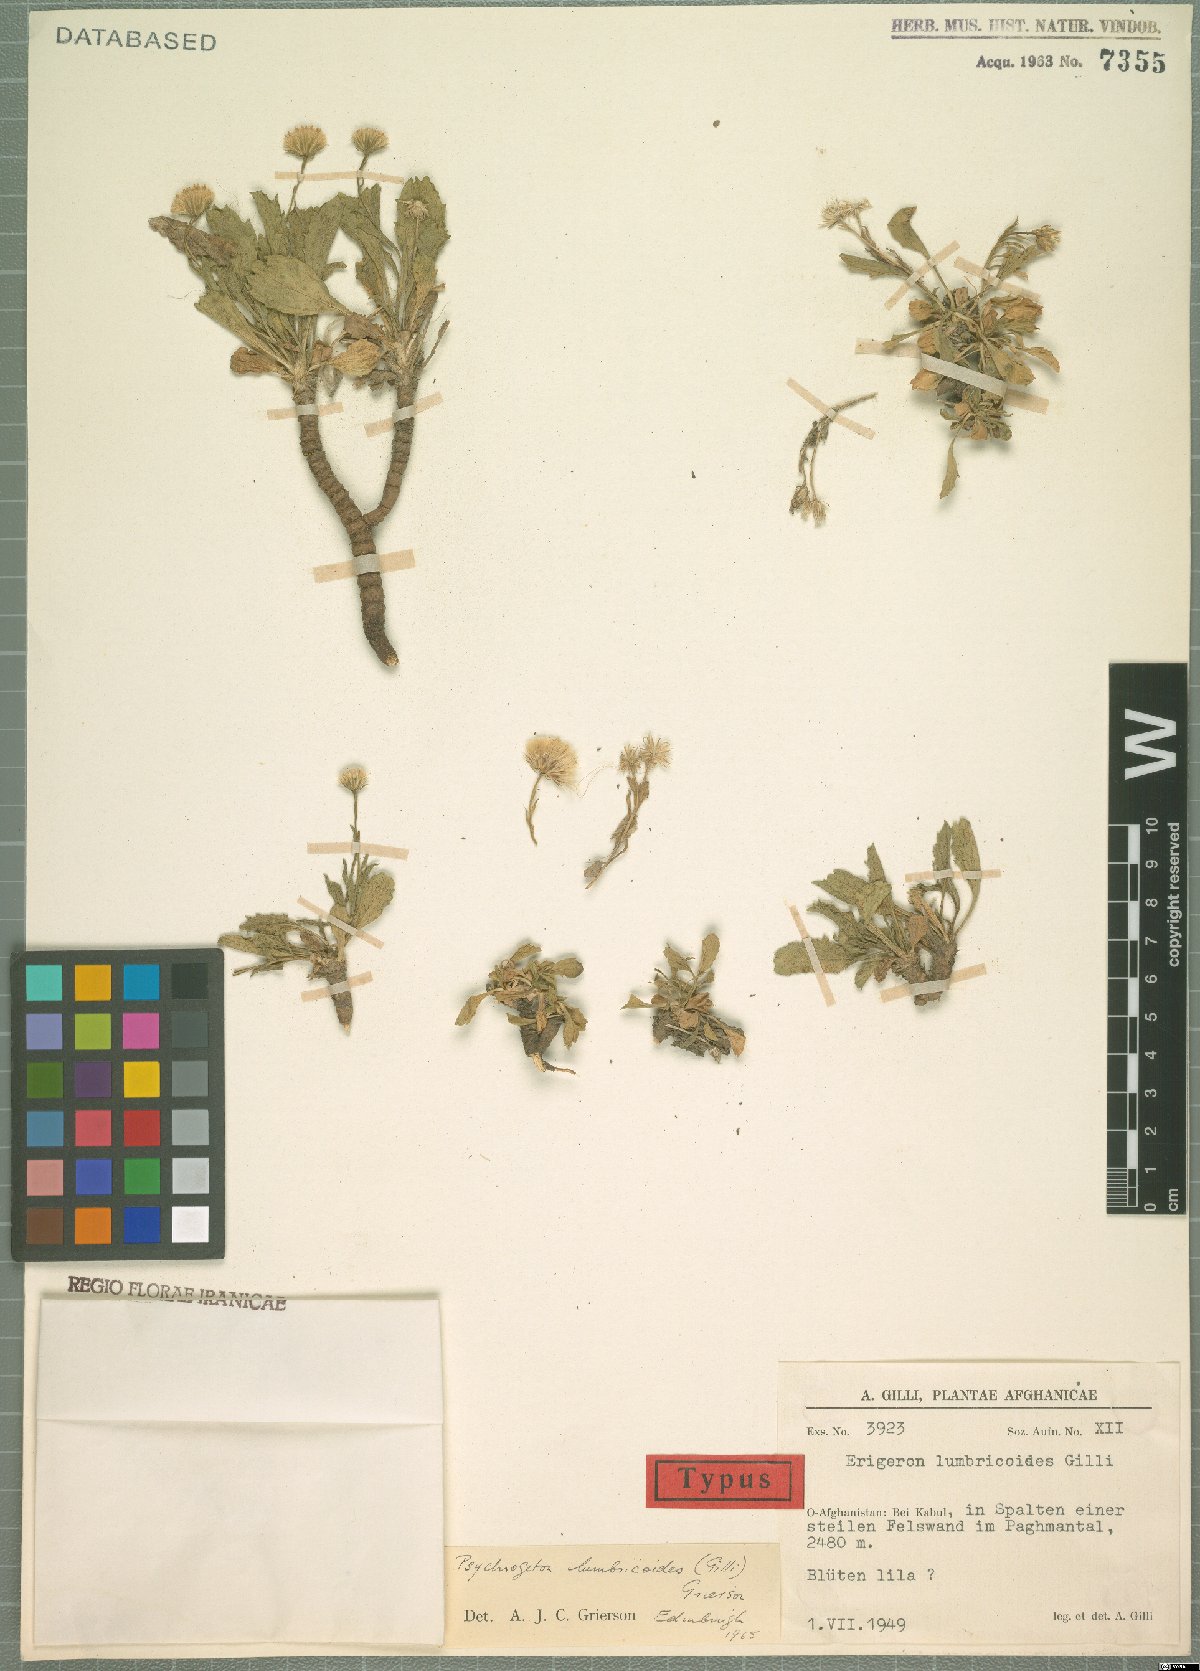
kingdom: Plantae
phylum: Tracheophyta
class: Magnoliopsida
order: Asterales
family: Asteraceae
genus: Psychrogeton
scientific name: Psychrogeton lumbricoides
